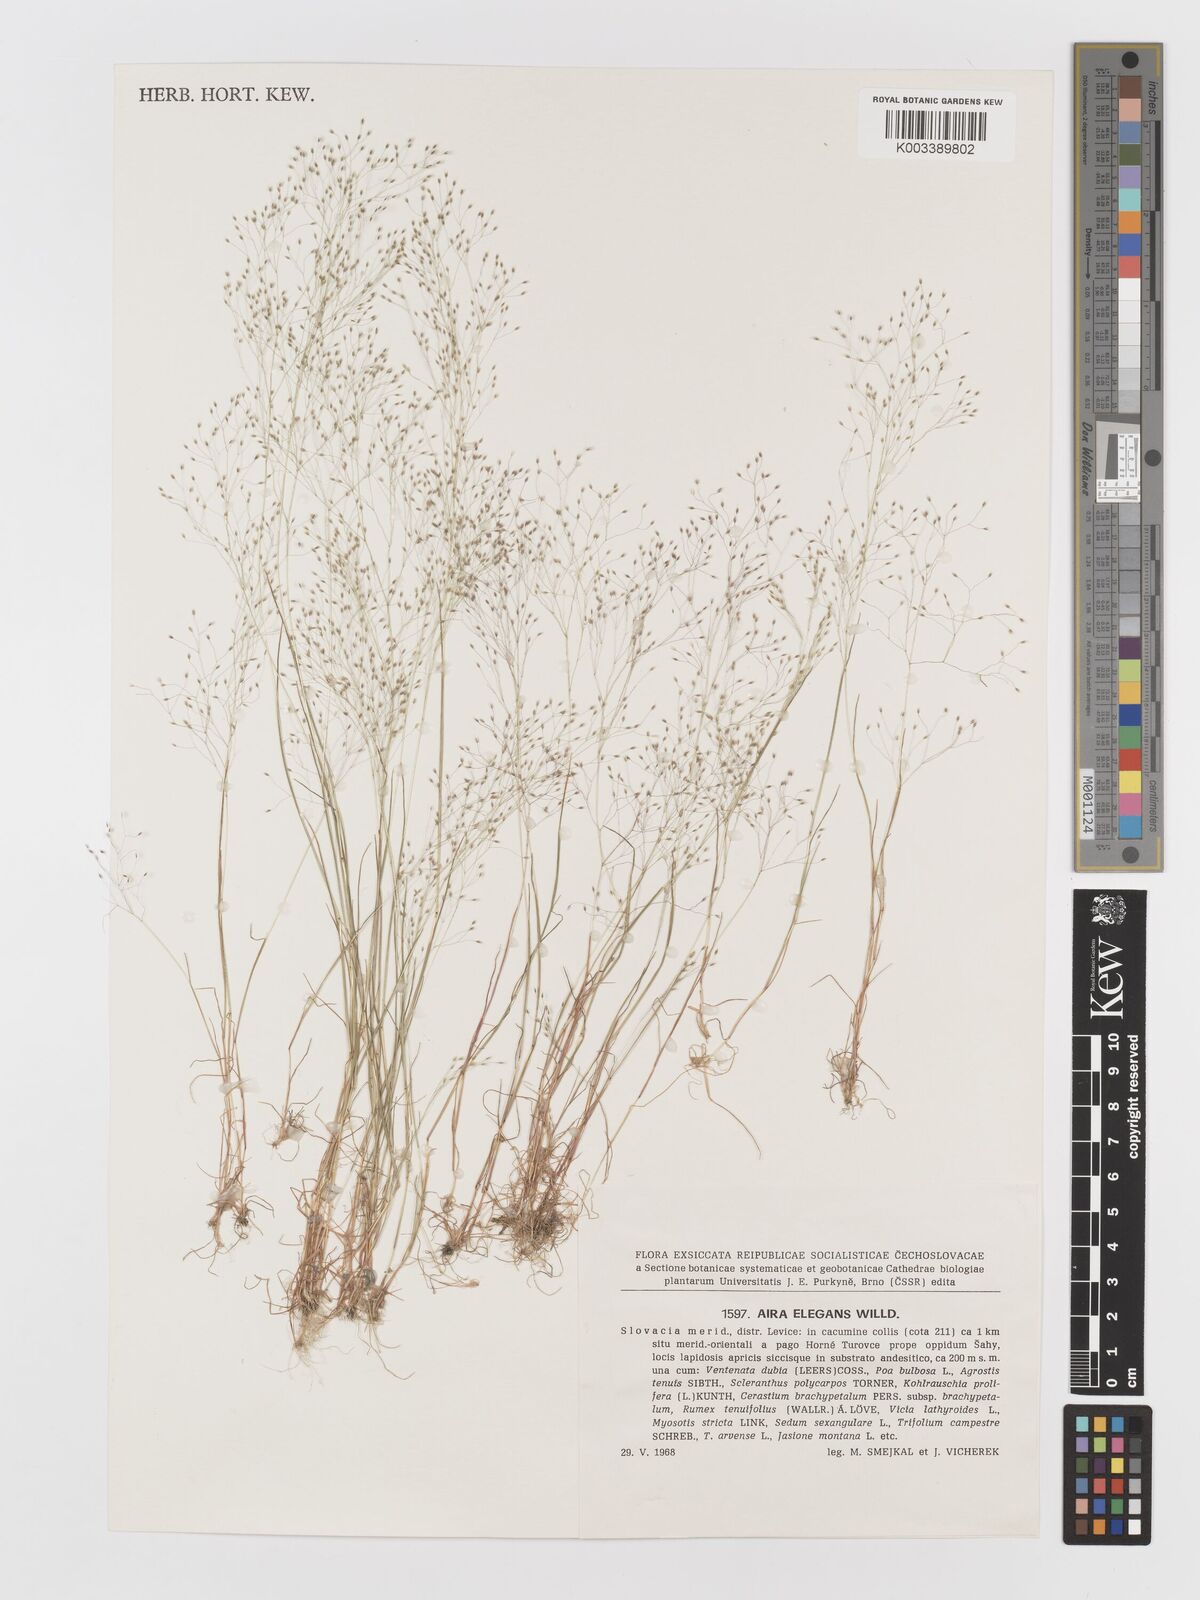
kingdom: Plantae
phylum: Tracheophyta
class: Liliopsida
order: Poales
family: Poaceae
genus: Aira
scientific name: Aira elegans
